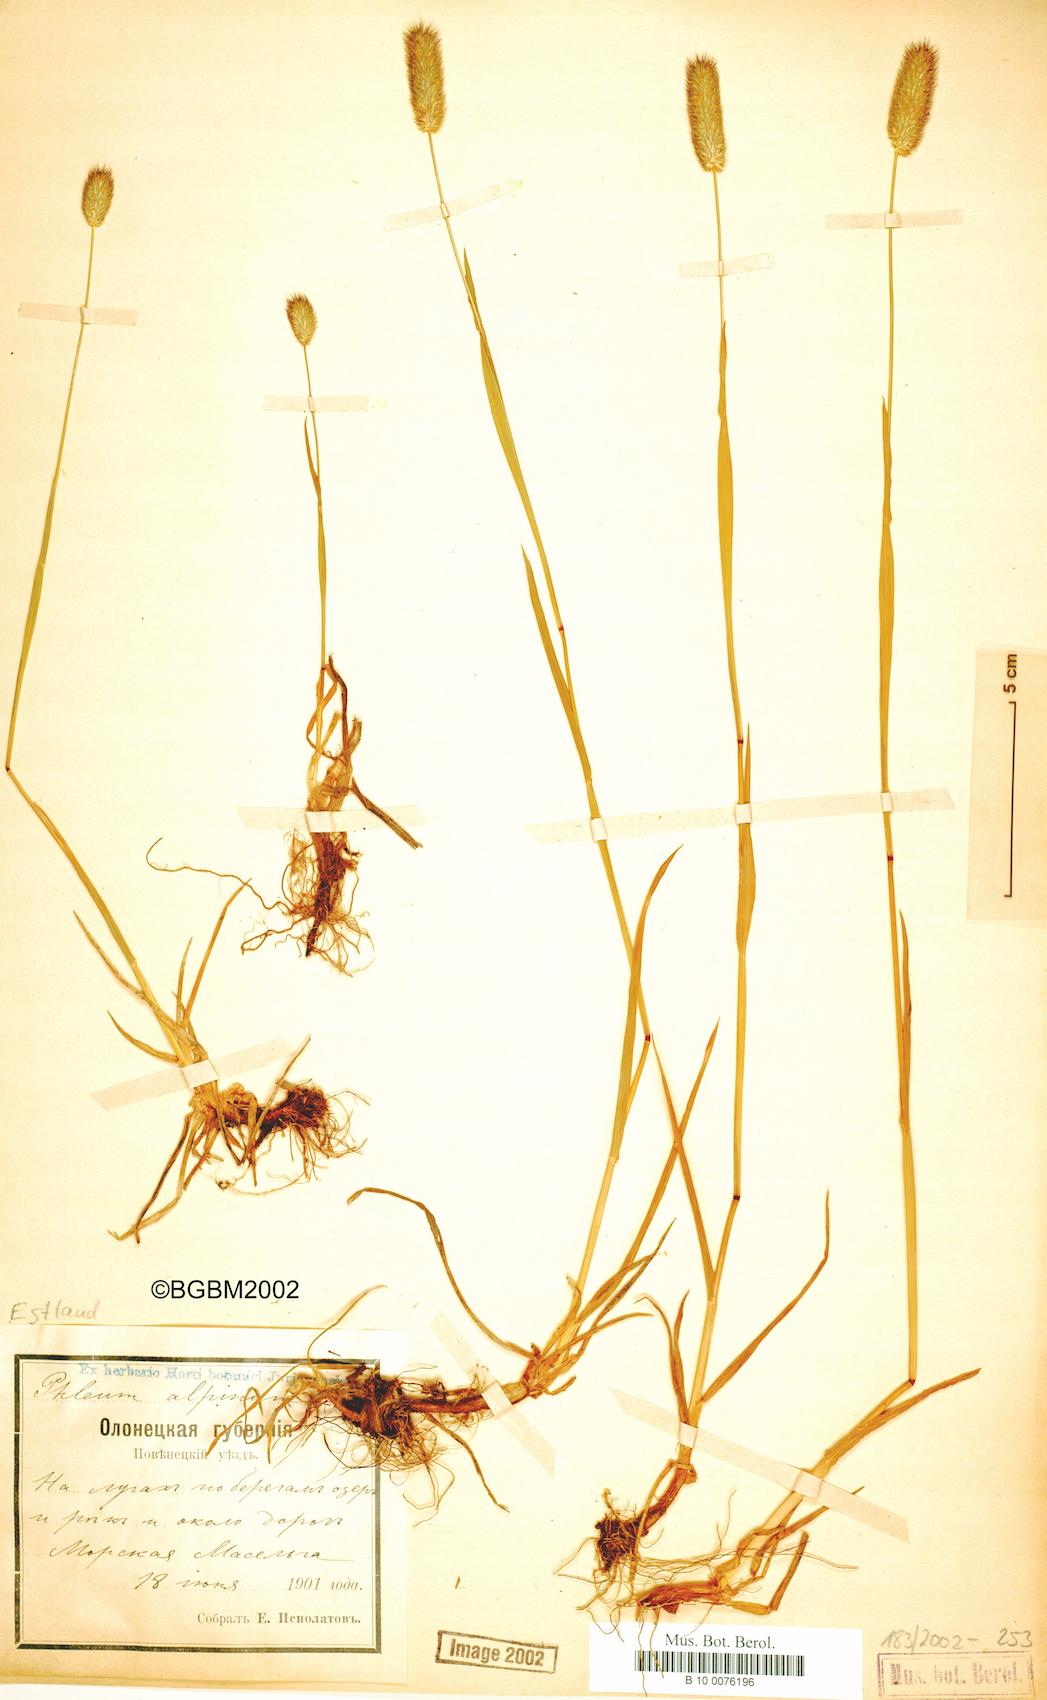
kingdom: Plantae
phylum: Tracheophyta
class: Liliopsida
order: Poales
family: Poaceae
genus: Phleum
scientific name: Phleum alpinum
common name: Alpine cat's-tail
